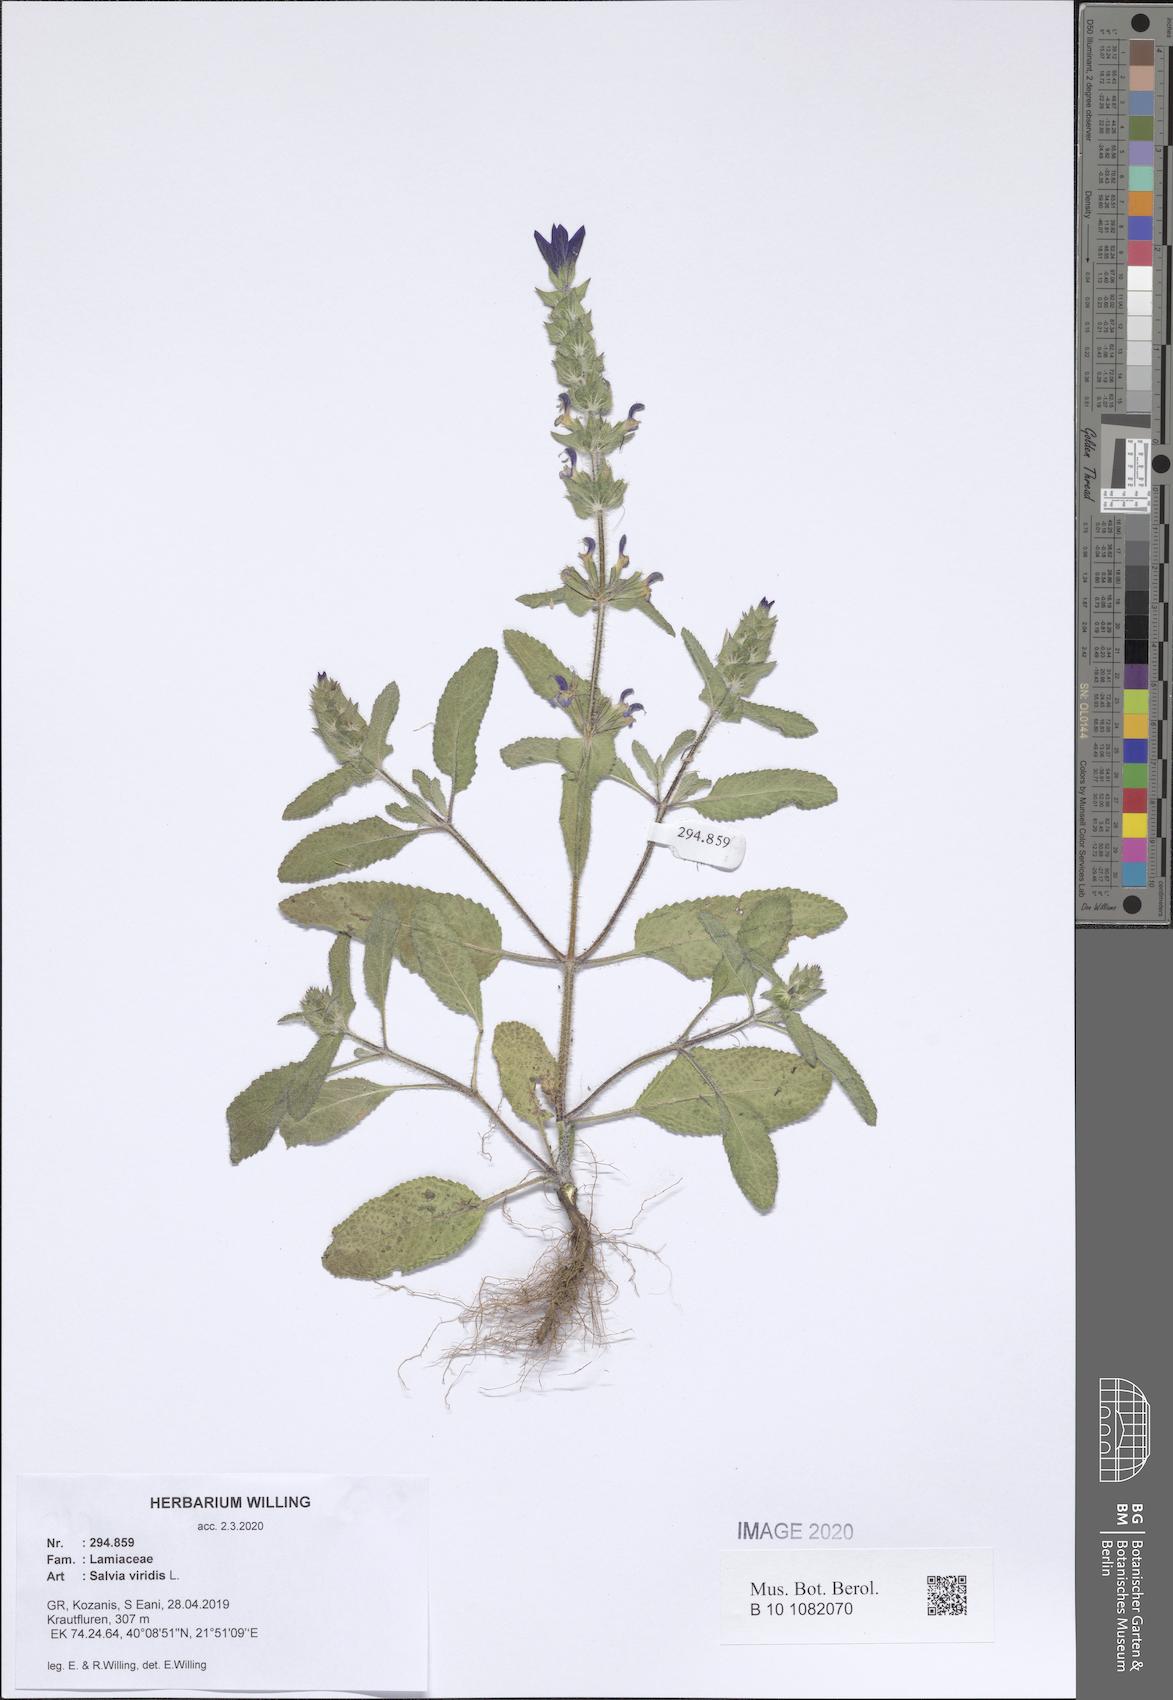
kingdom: Plantae
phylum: Tracheophyta
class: Magnoliopsida
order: Lamiales
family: Lamiaceae
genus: Salvia
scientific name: Salvia viridis
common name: Annual clary
